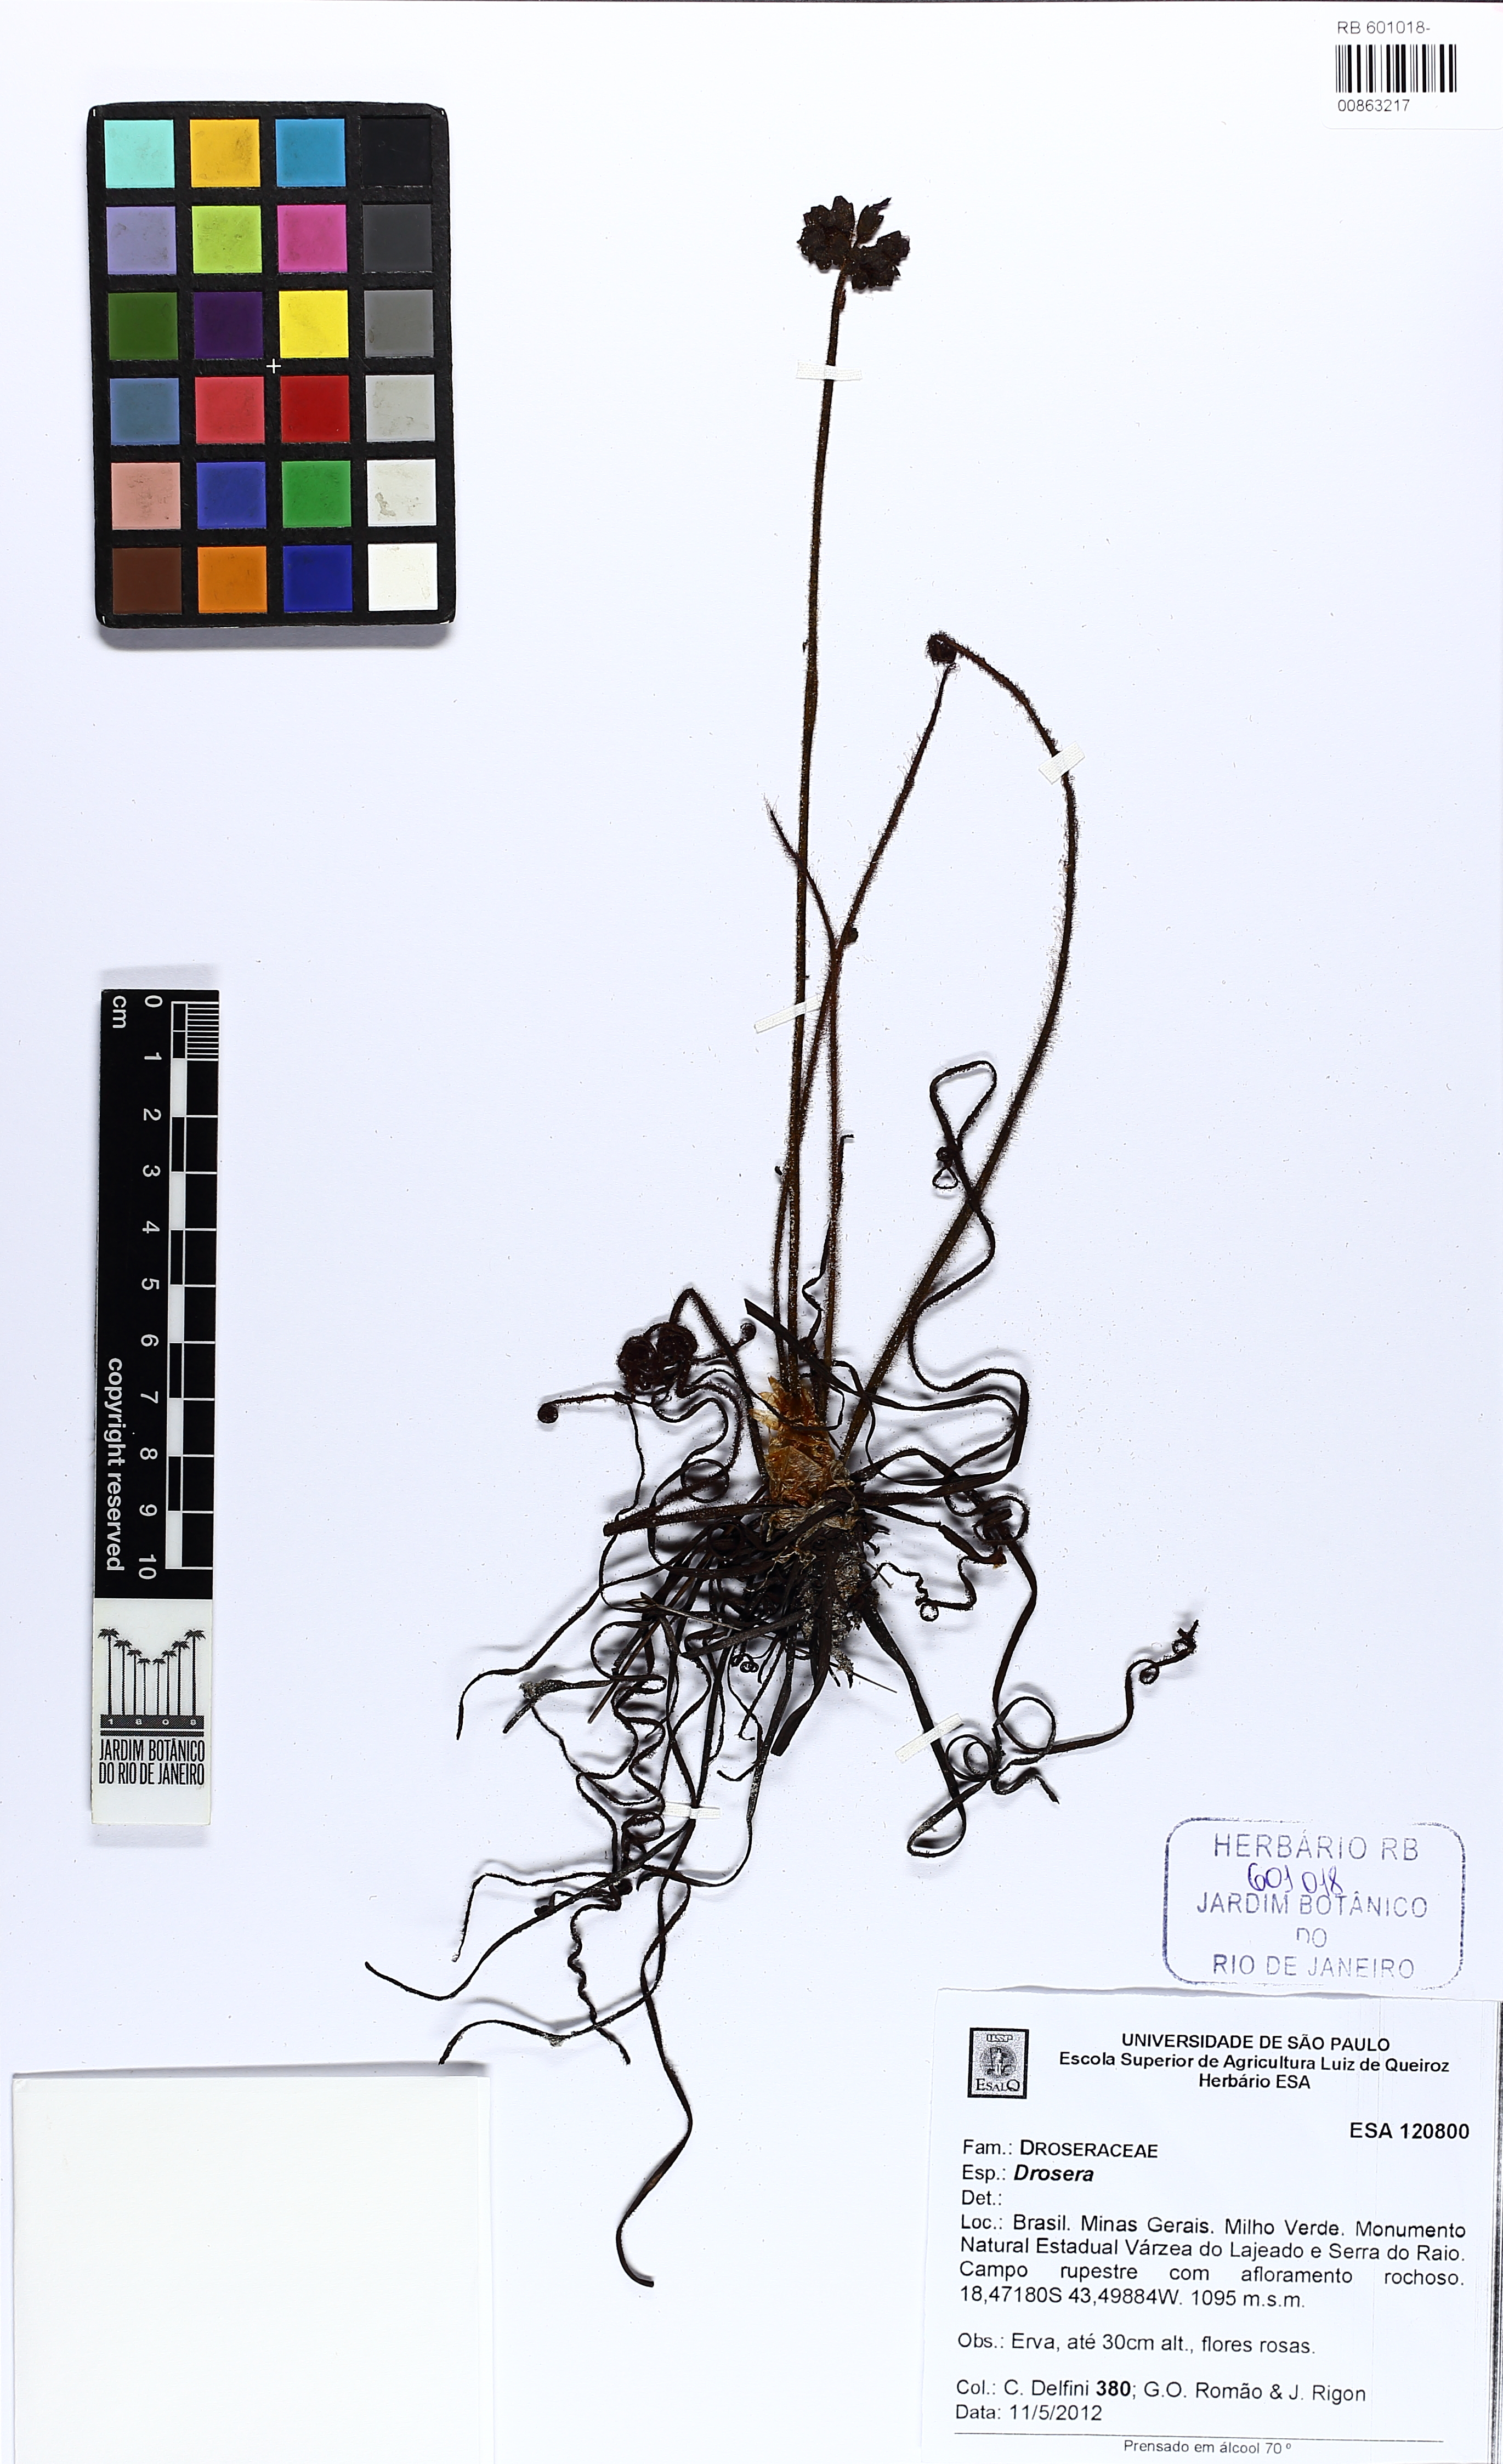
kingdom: Plantae
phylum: Tracheophyta
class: Magnoliopsida
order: Caryophyllales
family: Droseraceae
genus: Drosera
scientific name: Drosera graminifolia
